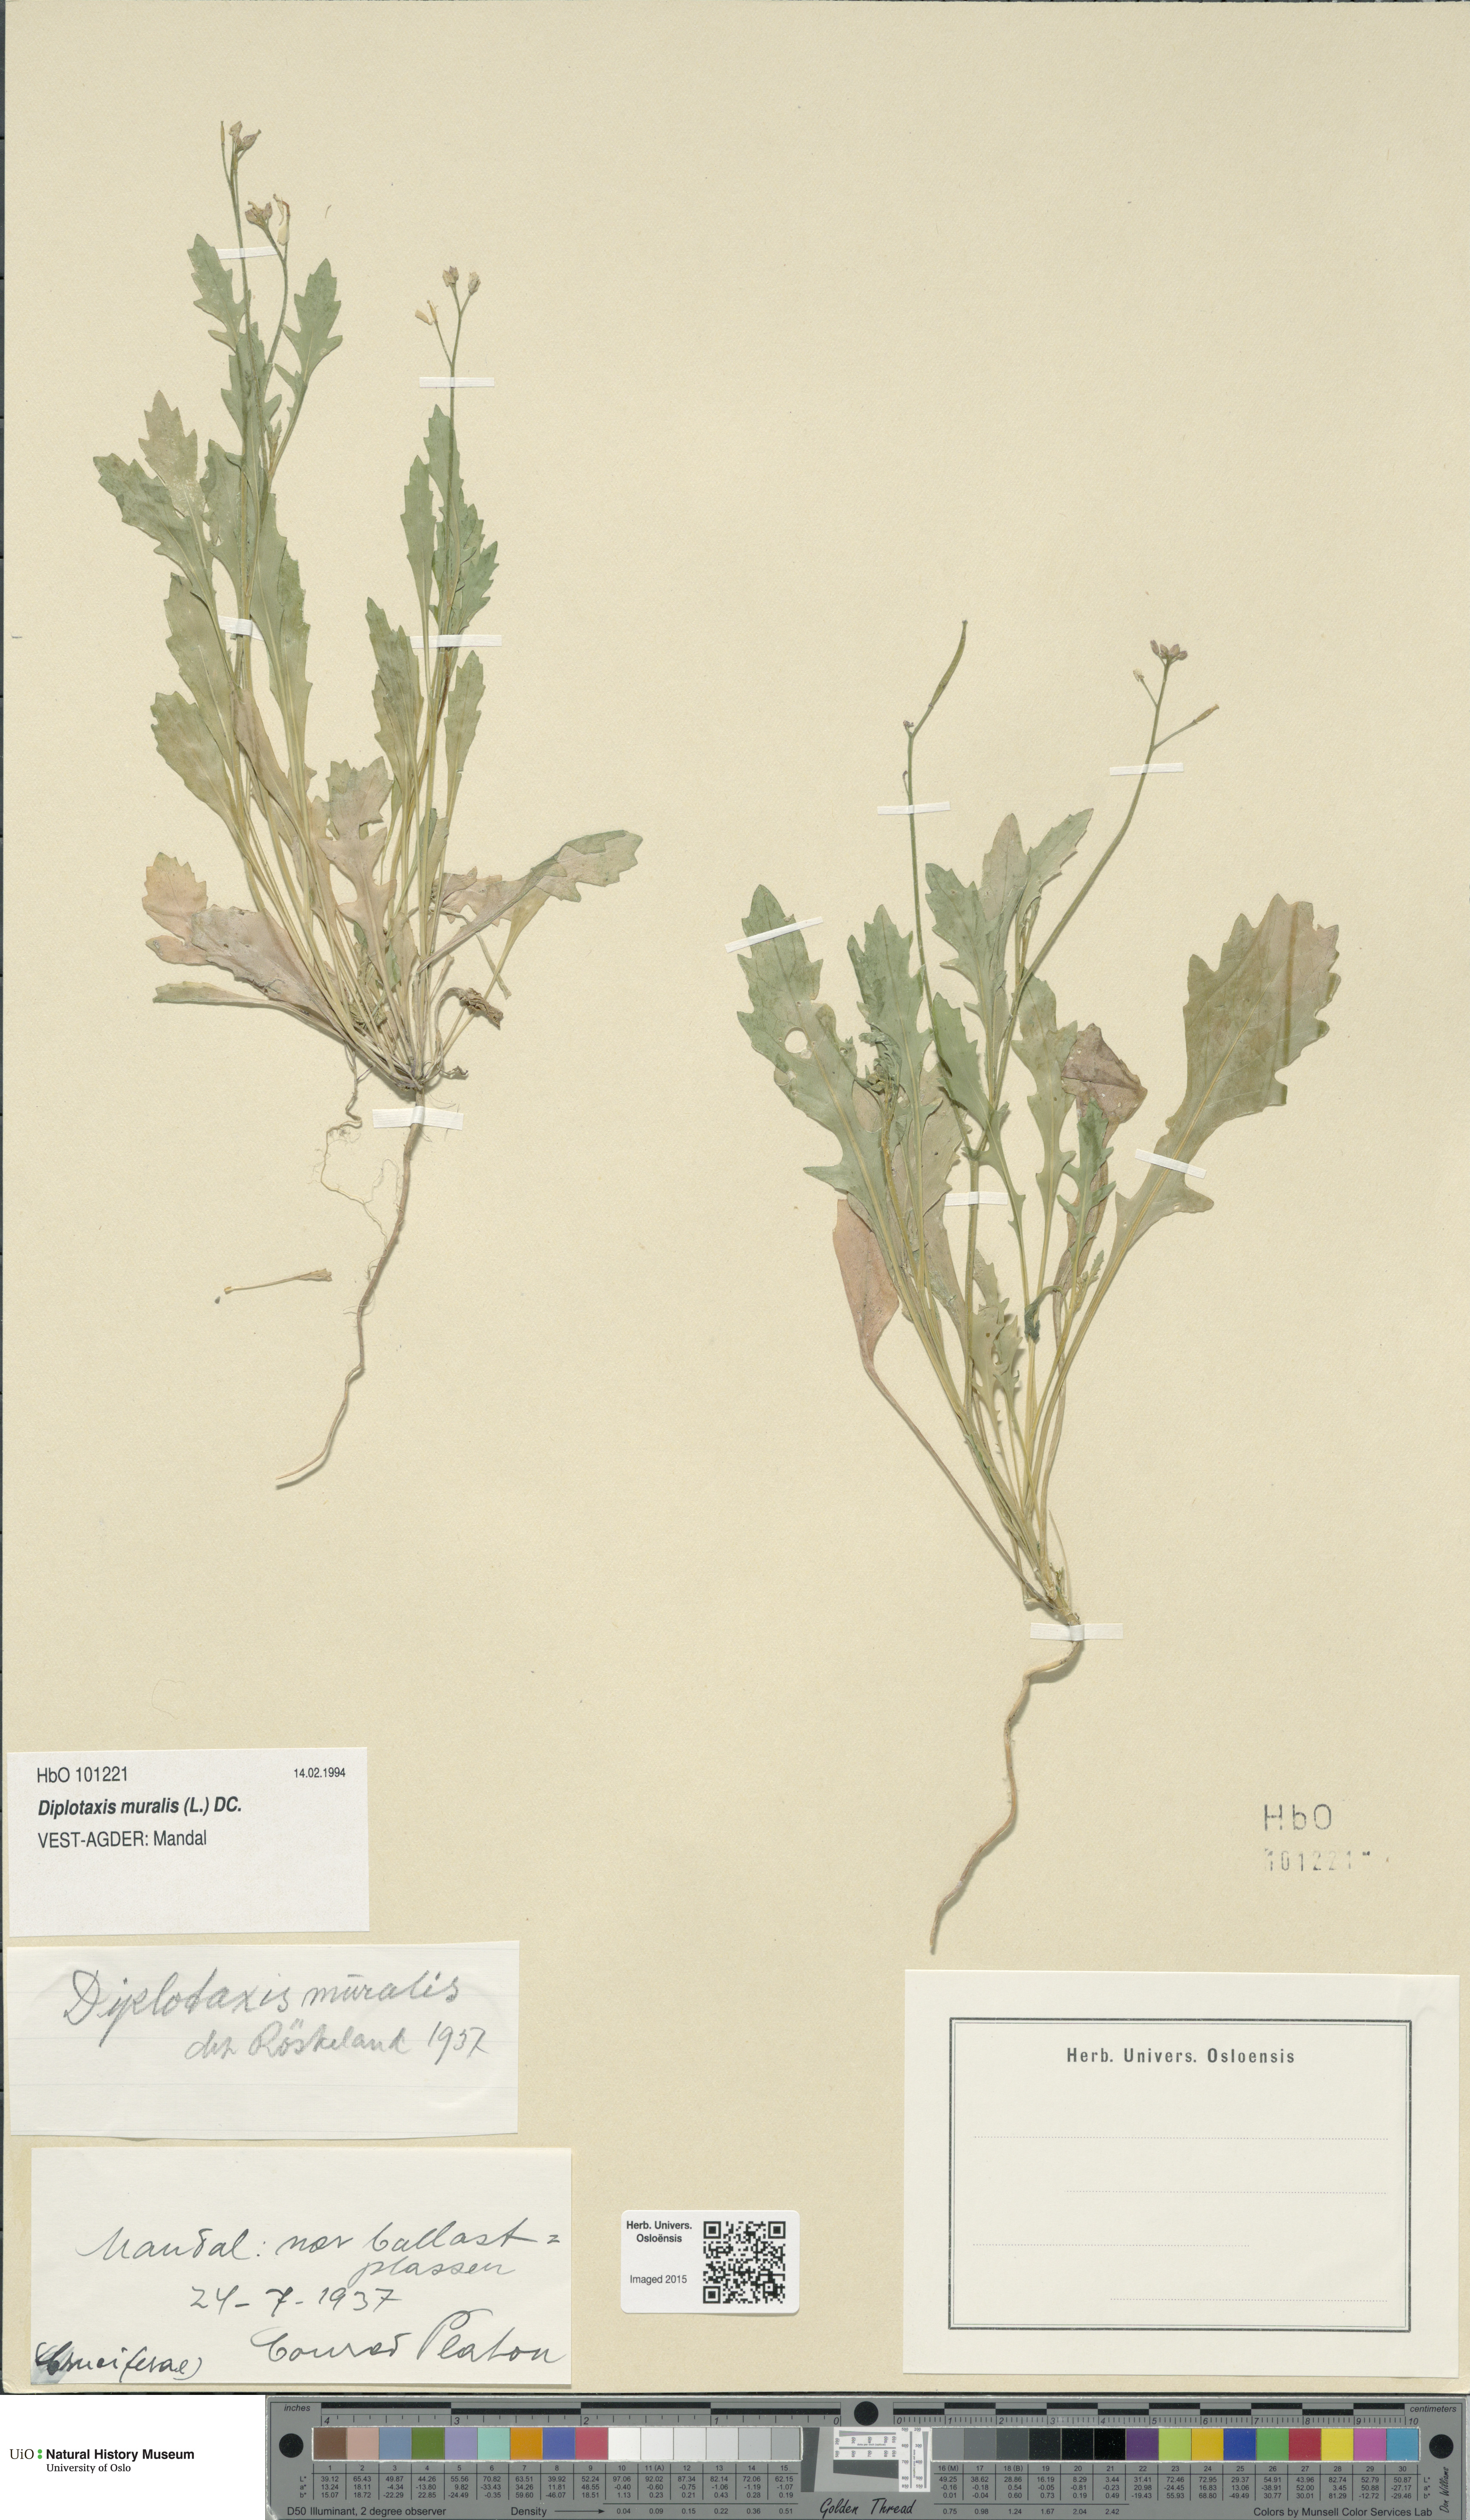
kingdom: Plantae
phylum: Tracheophyta
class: Magnoliopsida
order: Brassicales
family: Brassicaceae
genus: Diplotaxis
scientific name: Diplotaxis muralis
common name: Annual wall-rocket
